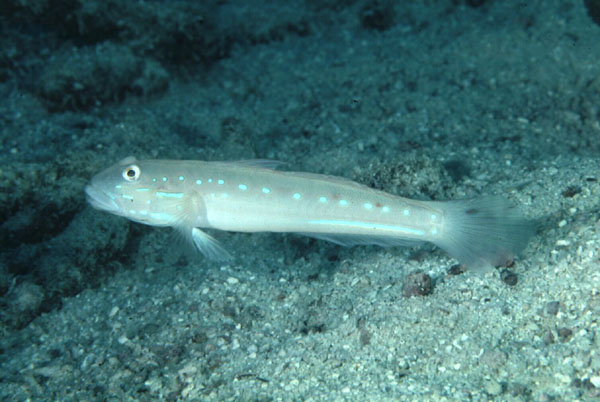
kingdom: Animalia
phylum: Chordata
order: Perciformes
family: Gobiidae
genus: Valenciennea
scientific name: Valenciennea persica
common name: Gulf goby
